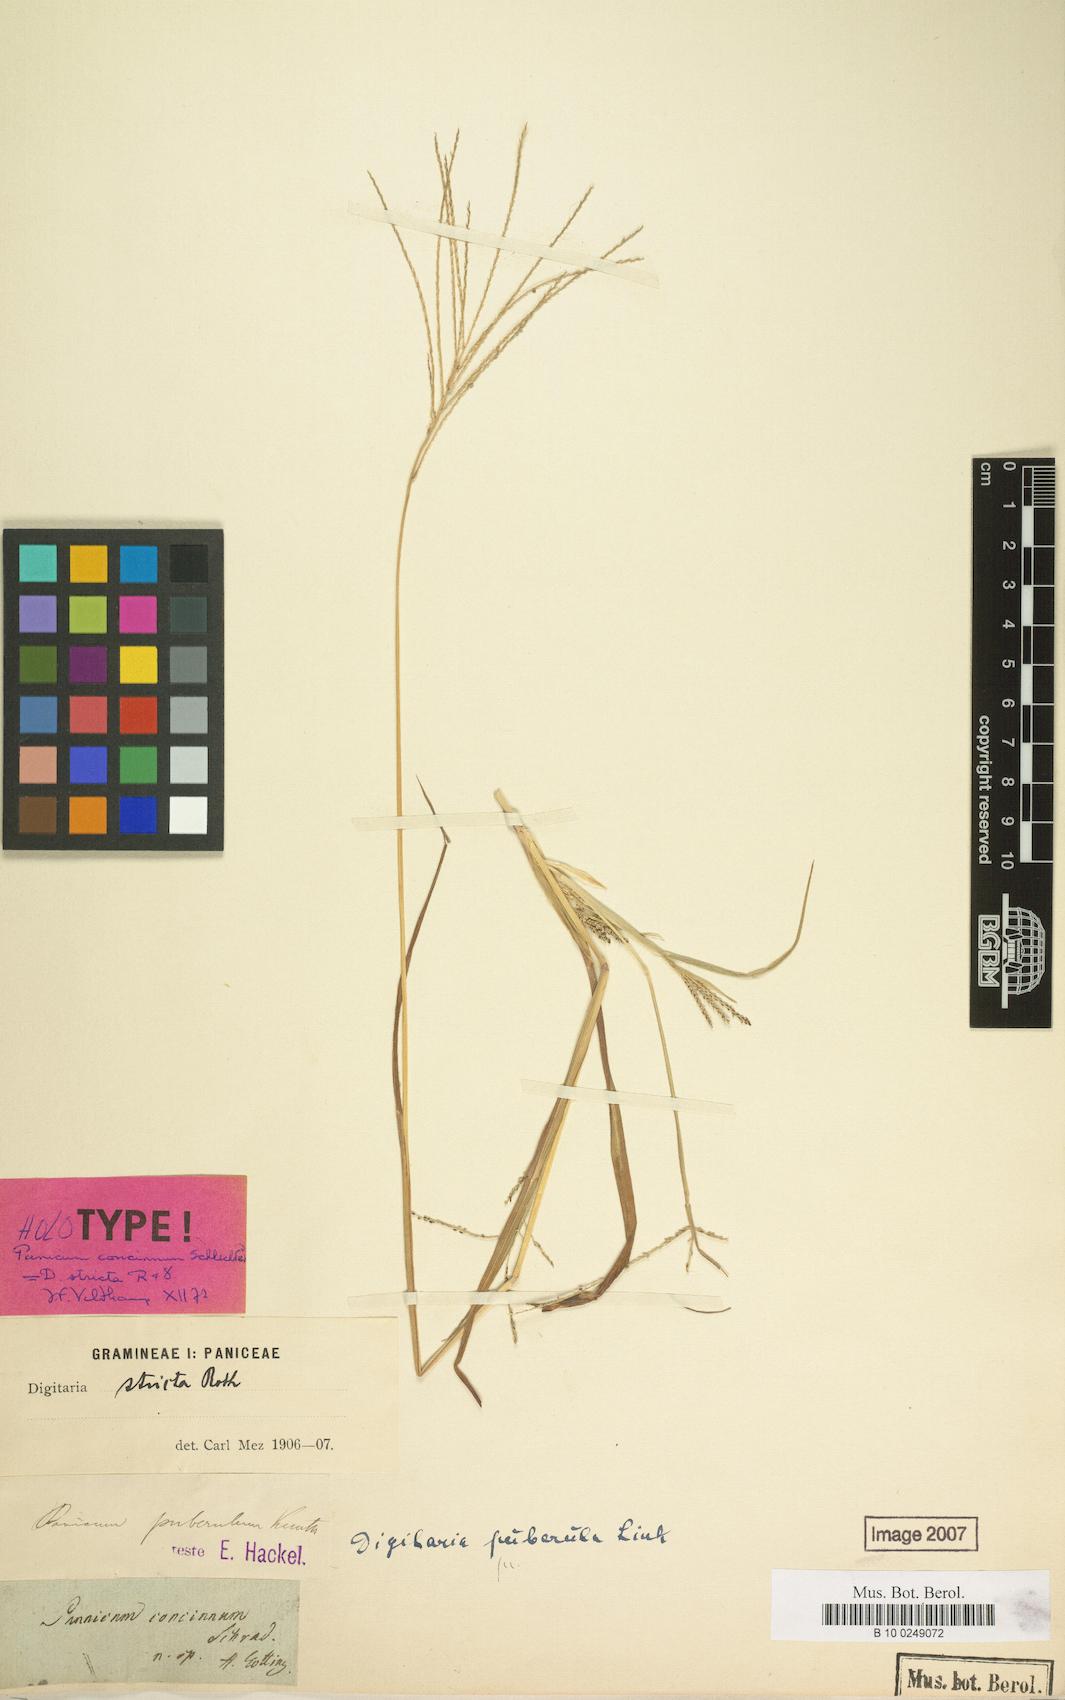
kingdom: Plantae
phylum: Tracheophyta
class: Liliopsida
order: Poales
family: Poaceae
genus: Digitaria
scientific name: Digitaria stricta
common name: Crabgrass
